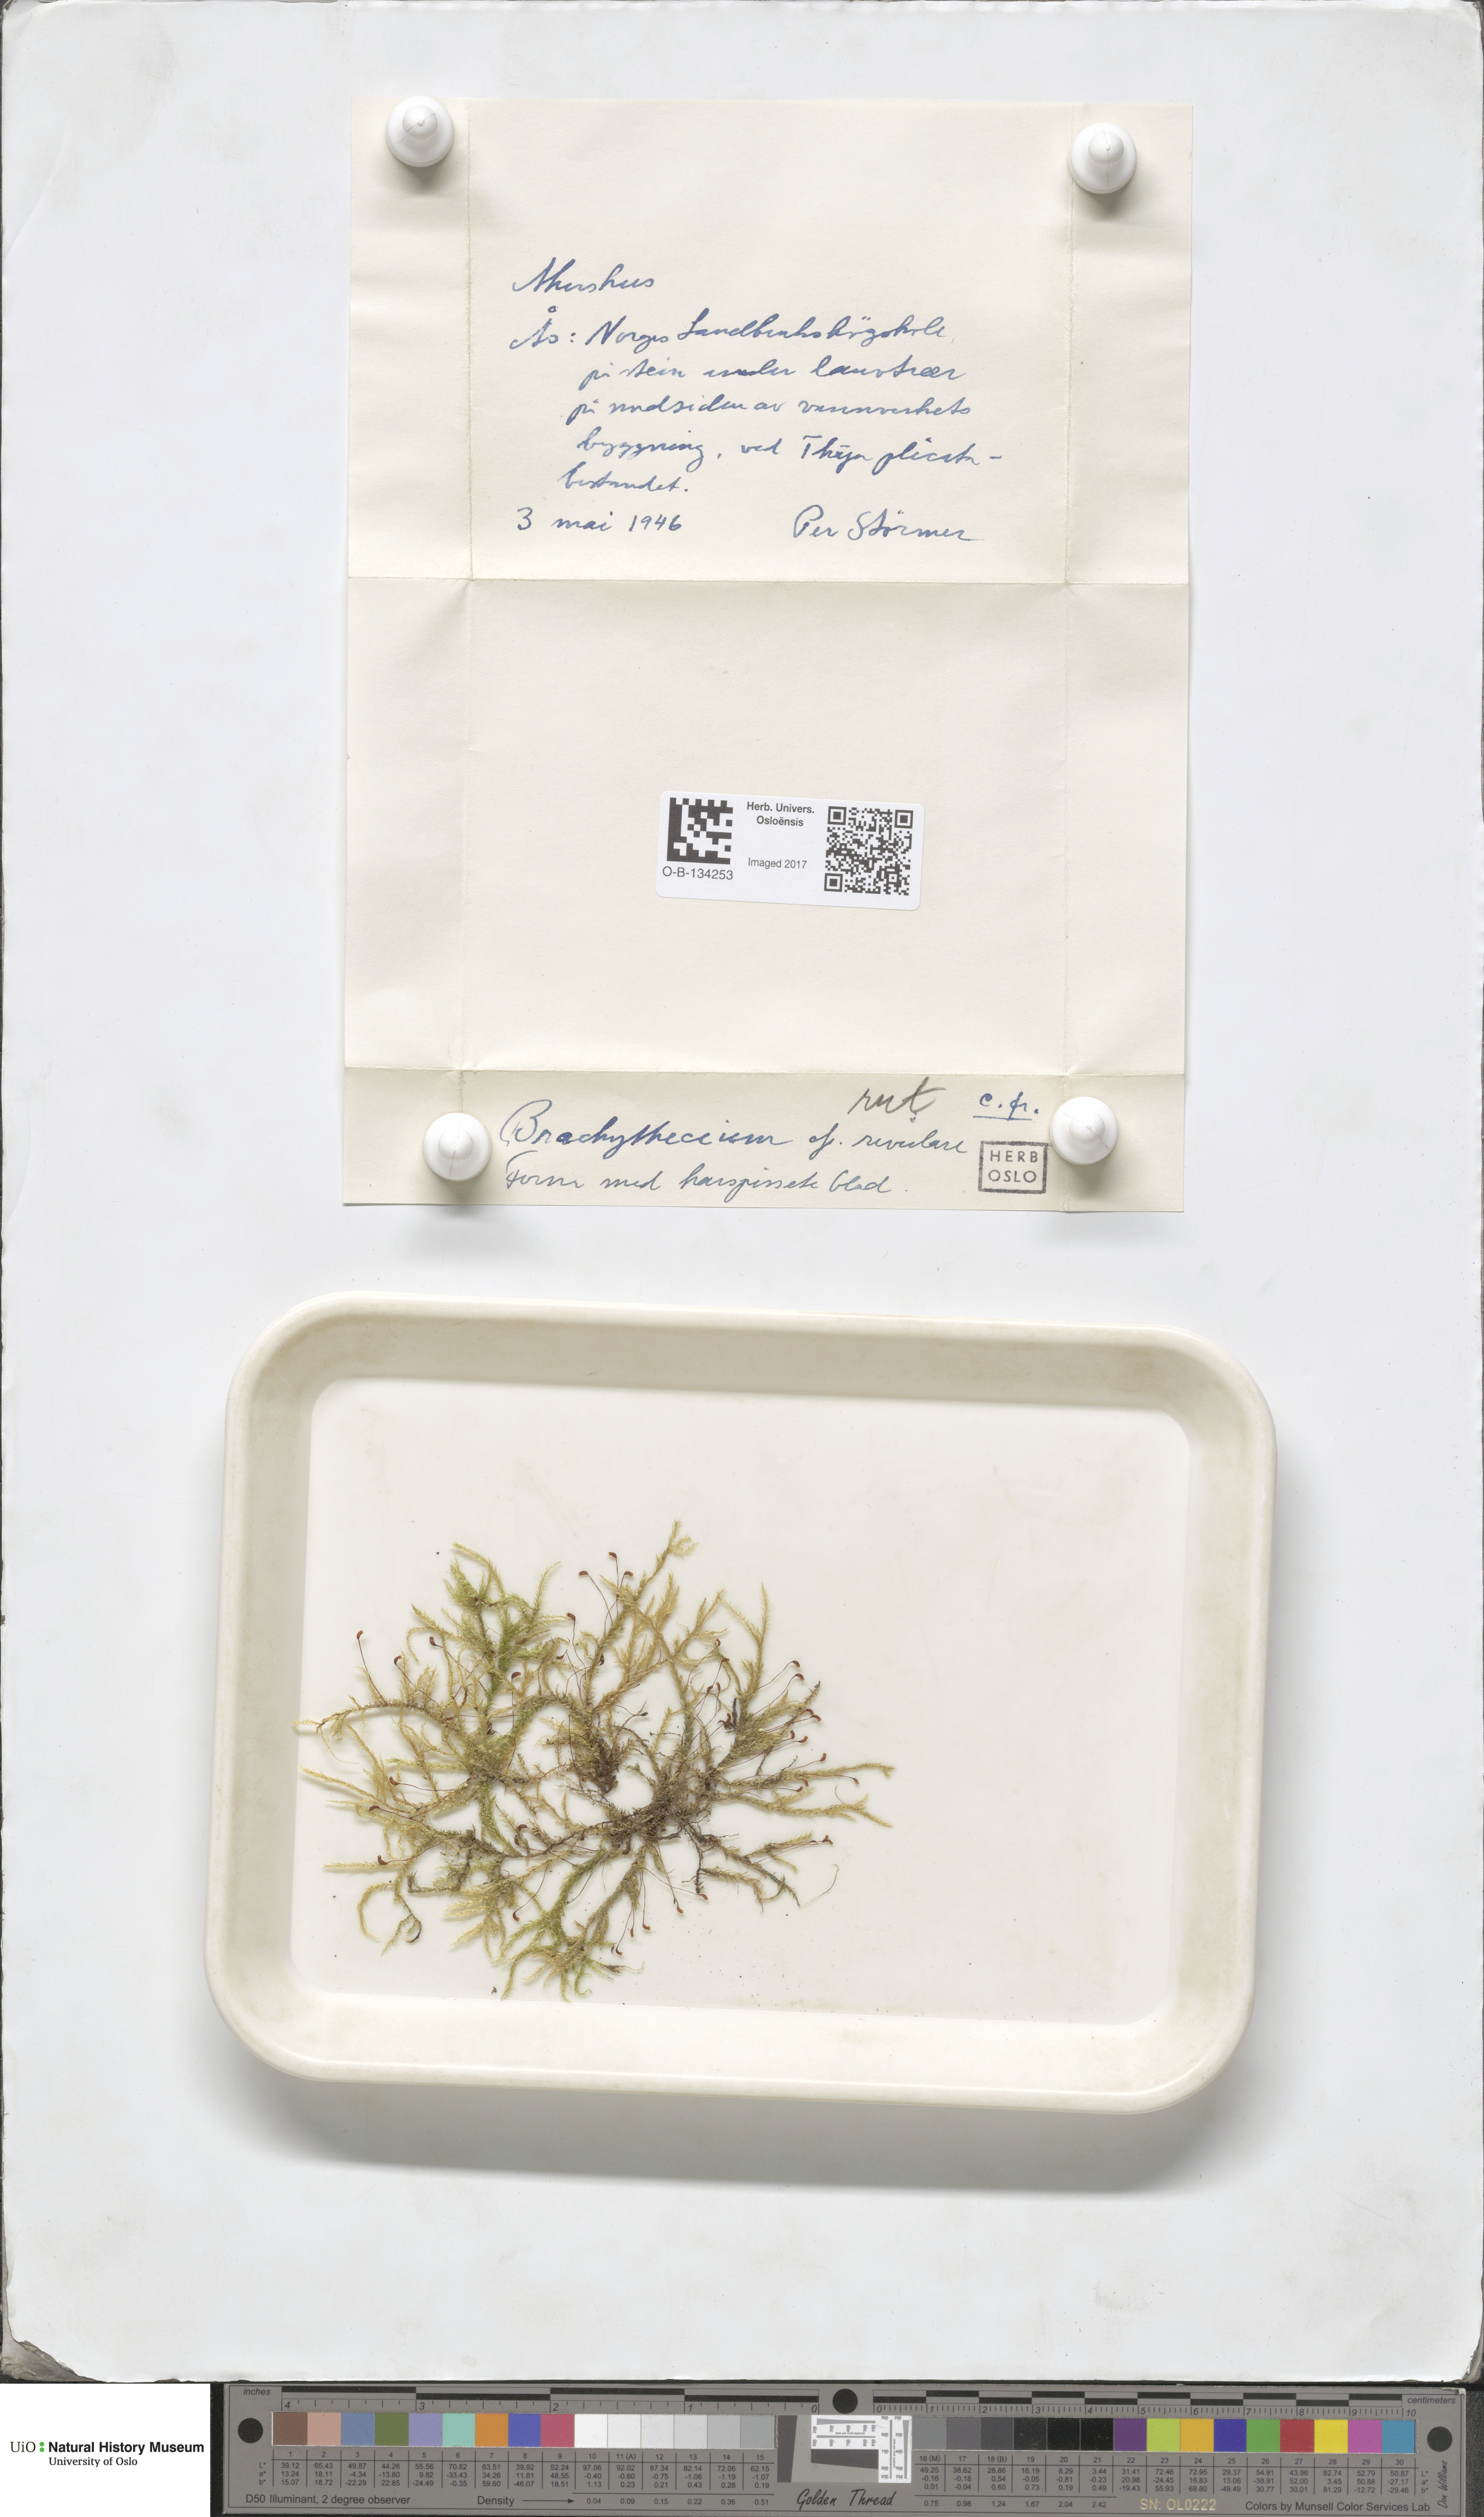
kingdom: Plantae
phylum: Bryophyta
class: Bryopsida
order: Hypnales
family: Brachytheciaceae
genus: Brachythecium
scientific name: Brachythecium rivulare
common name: River ragged moss
